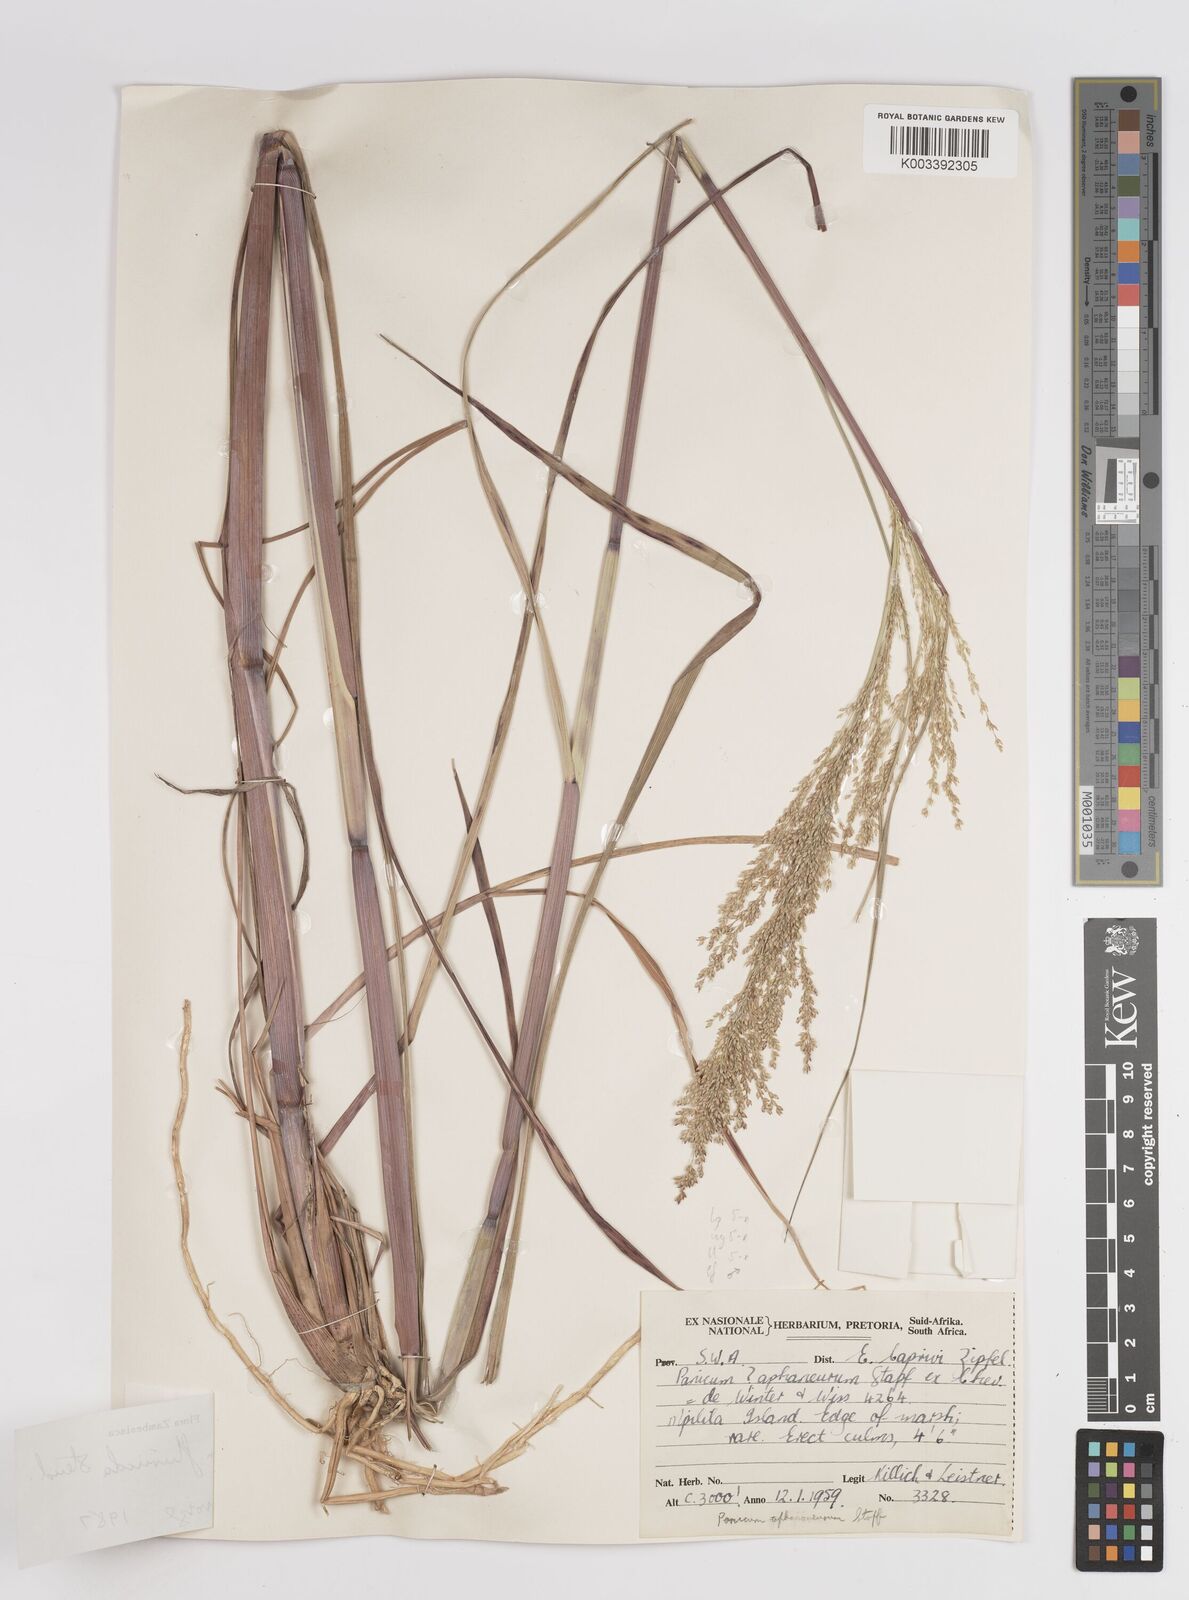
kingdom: Plantae
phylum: Tracheophyta
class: Liliopsida
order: Poales
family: Poaceae
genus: Panicum
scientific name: Panicum fluviicola
